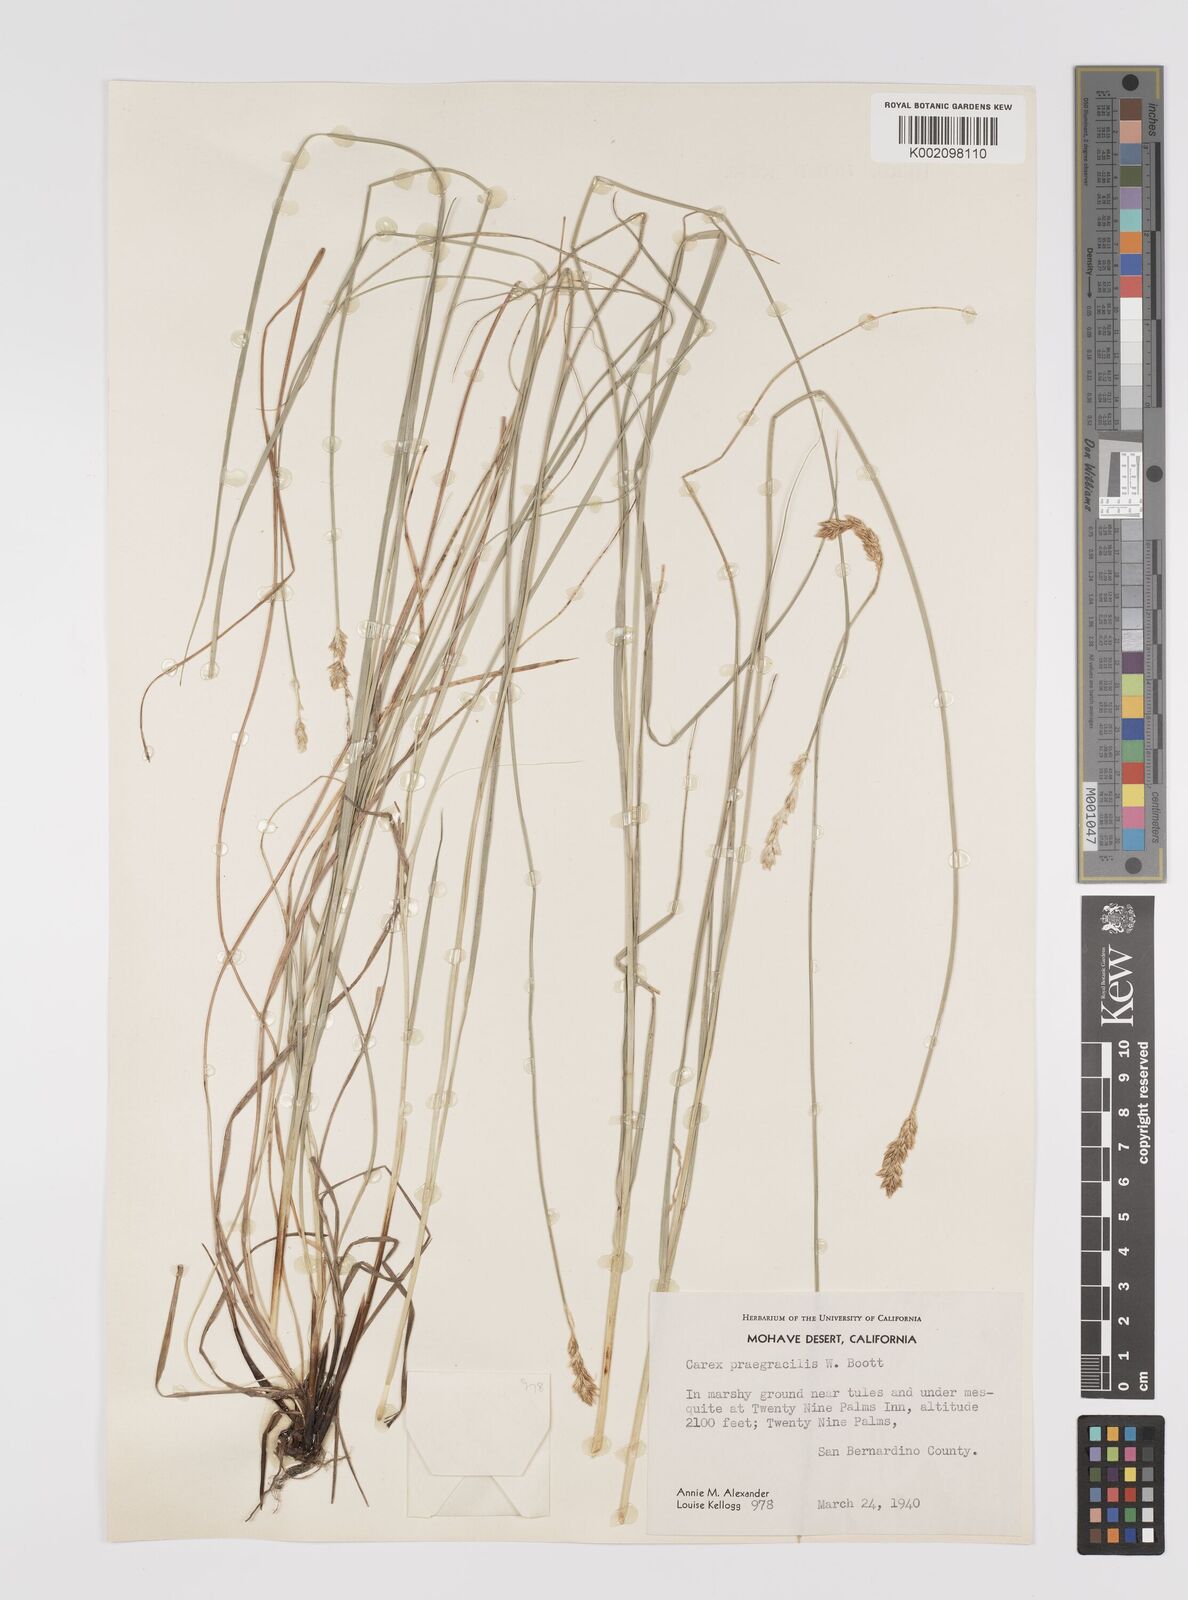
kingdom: Plantae
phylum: Tracheophyta
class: Liliopsida
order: Poales
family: Cyperaceae
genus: Carex
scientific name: Carex praegracilis
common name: Black creeper sedge
